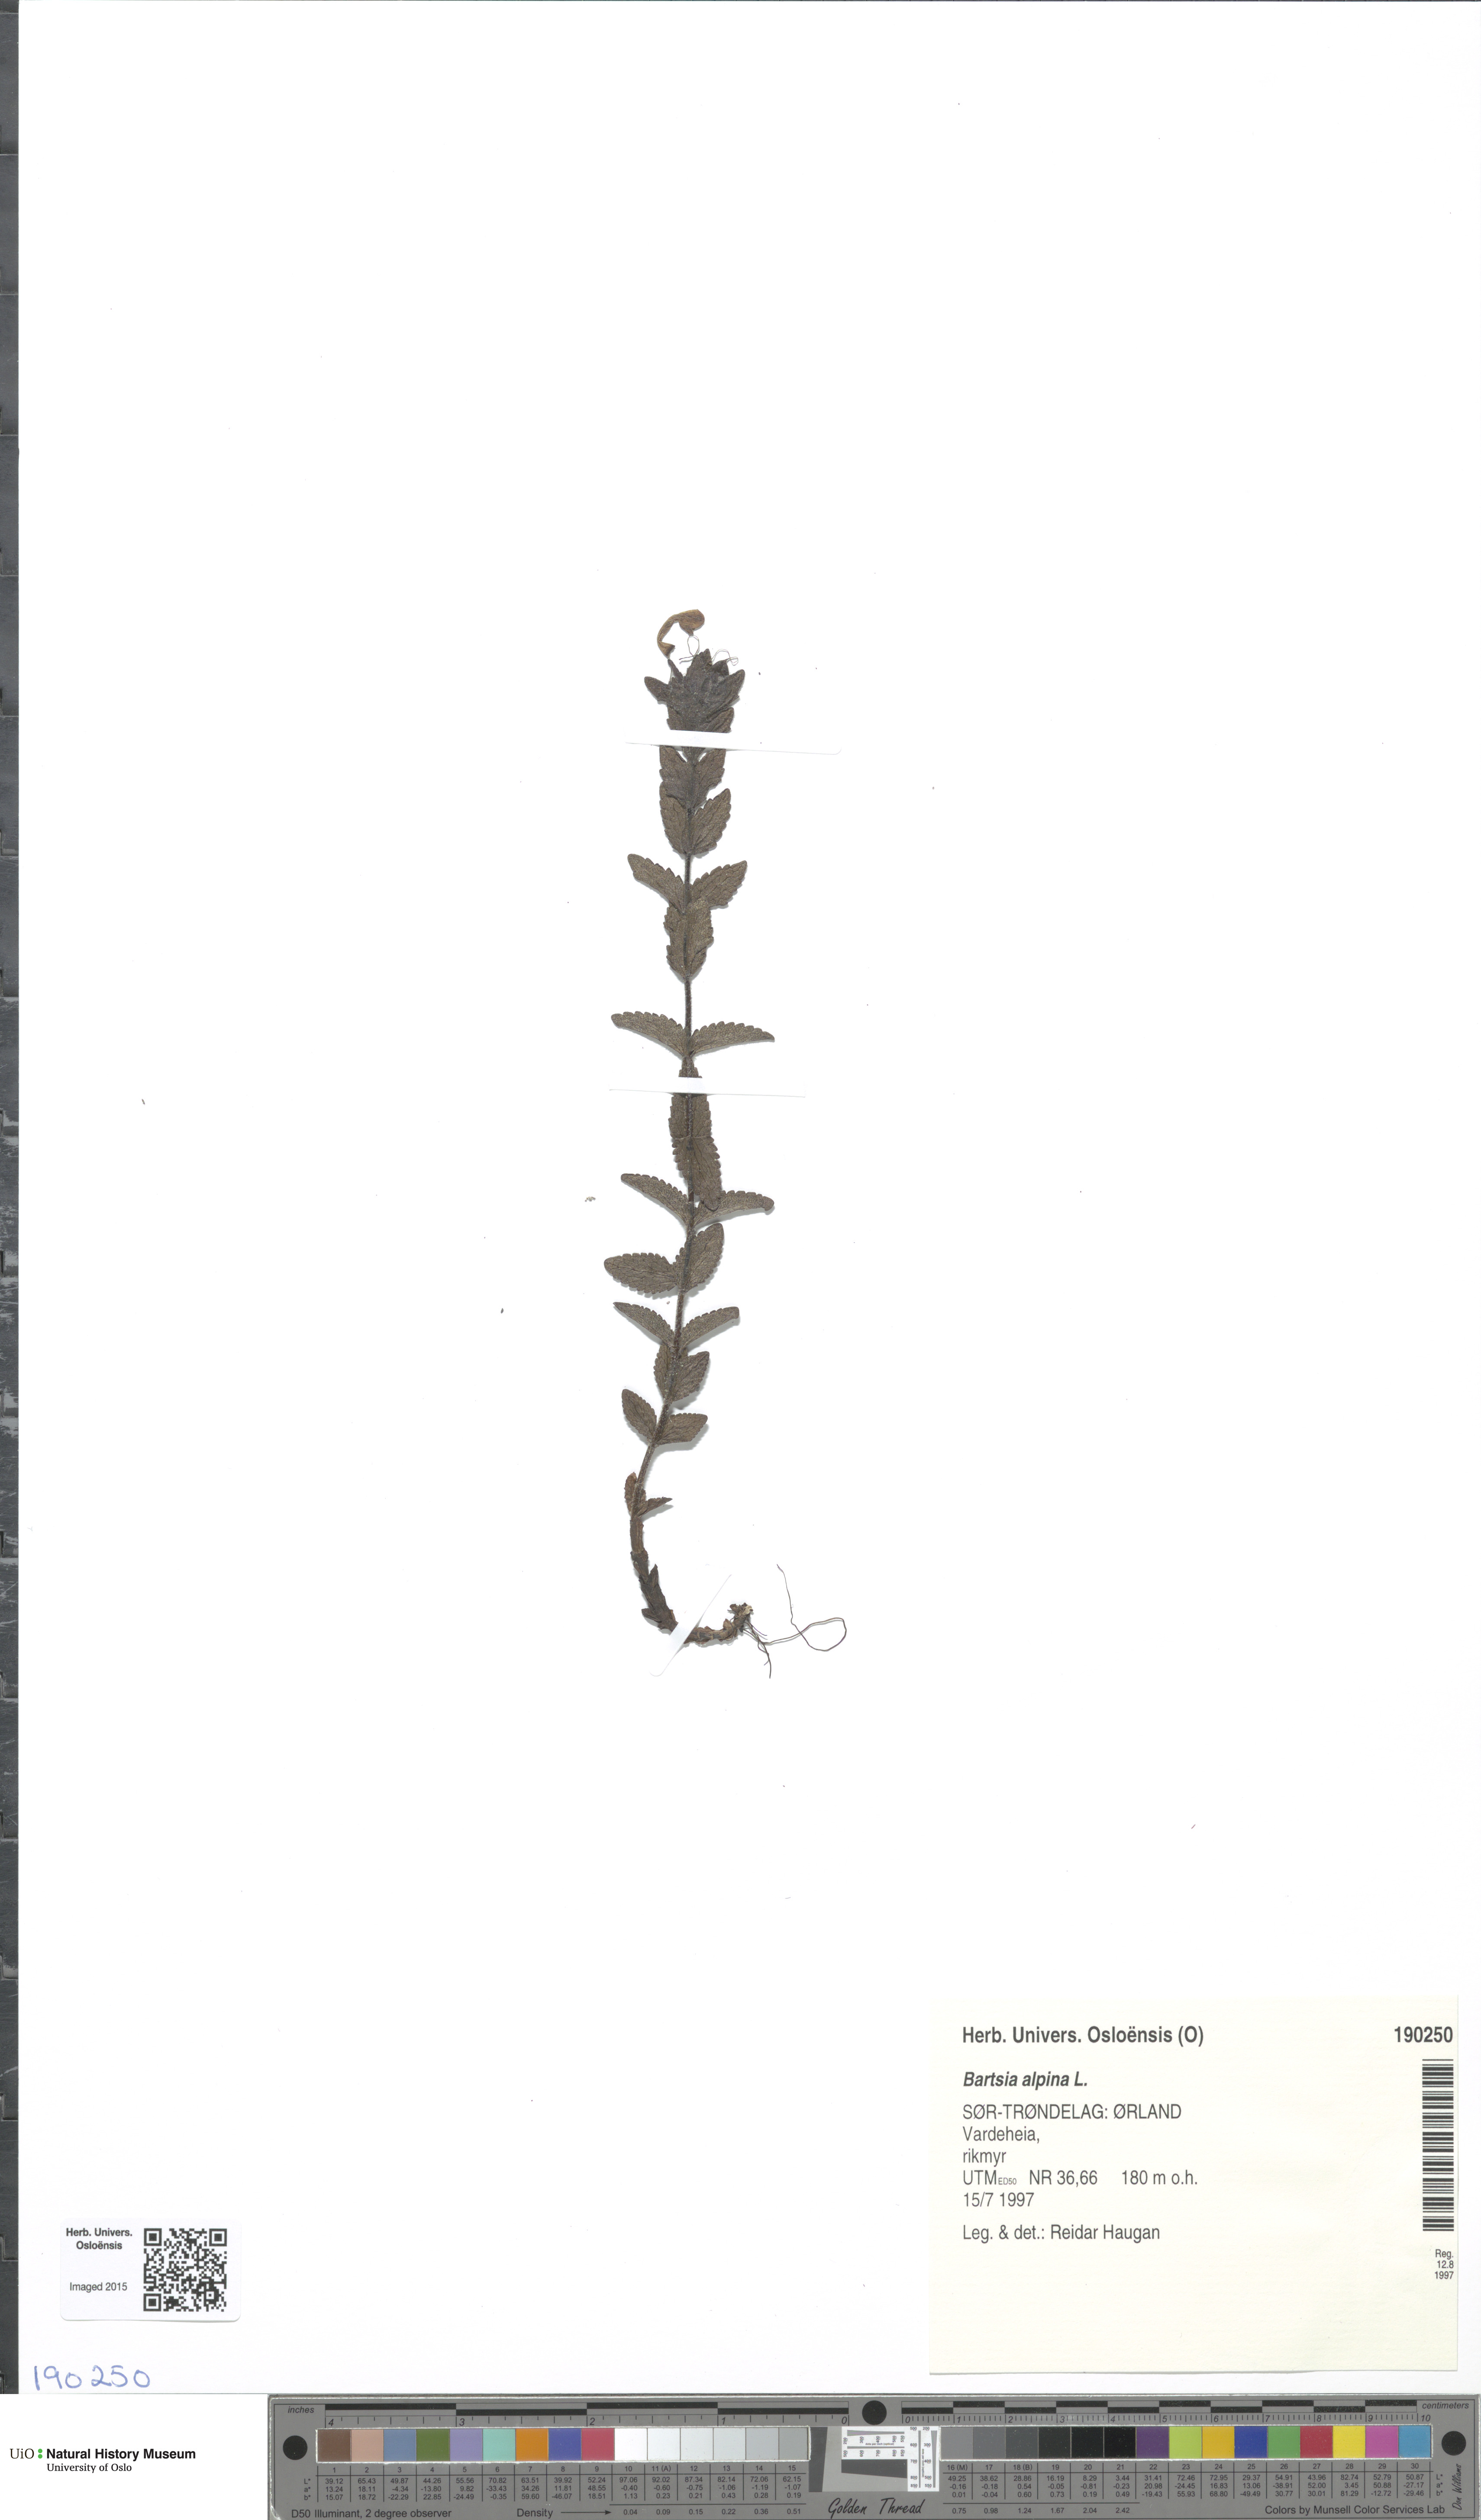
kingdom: Plantae
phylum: Tracheophyta
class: Magnoliopsida
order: Lamiales
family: Orobanchaceae
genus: Bartsia
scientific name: Bartsia alpina
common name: Alpine bartsia
